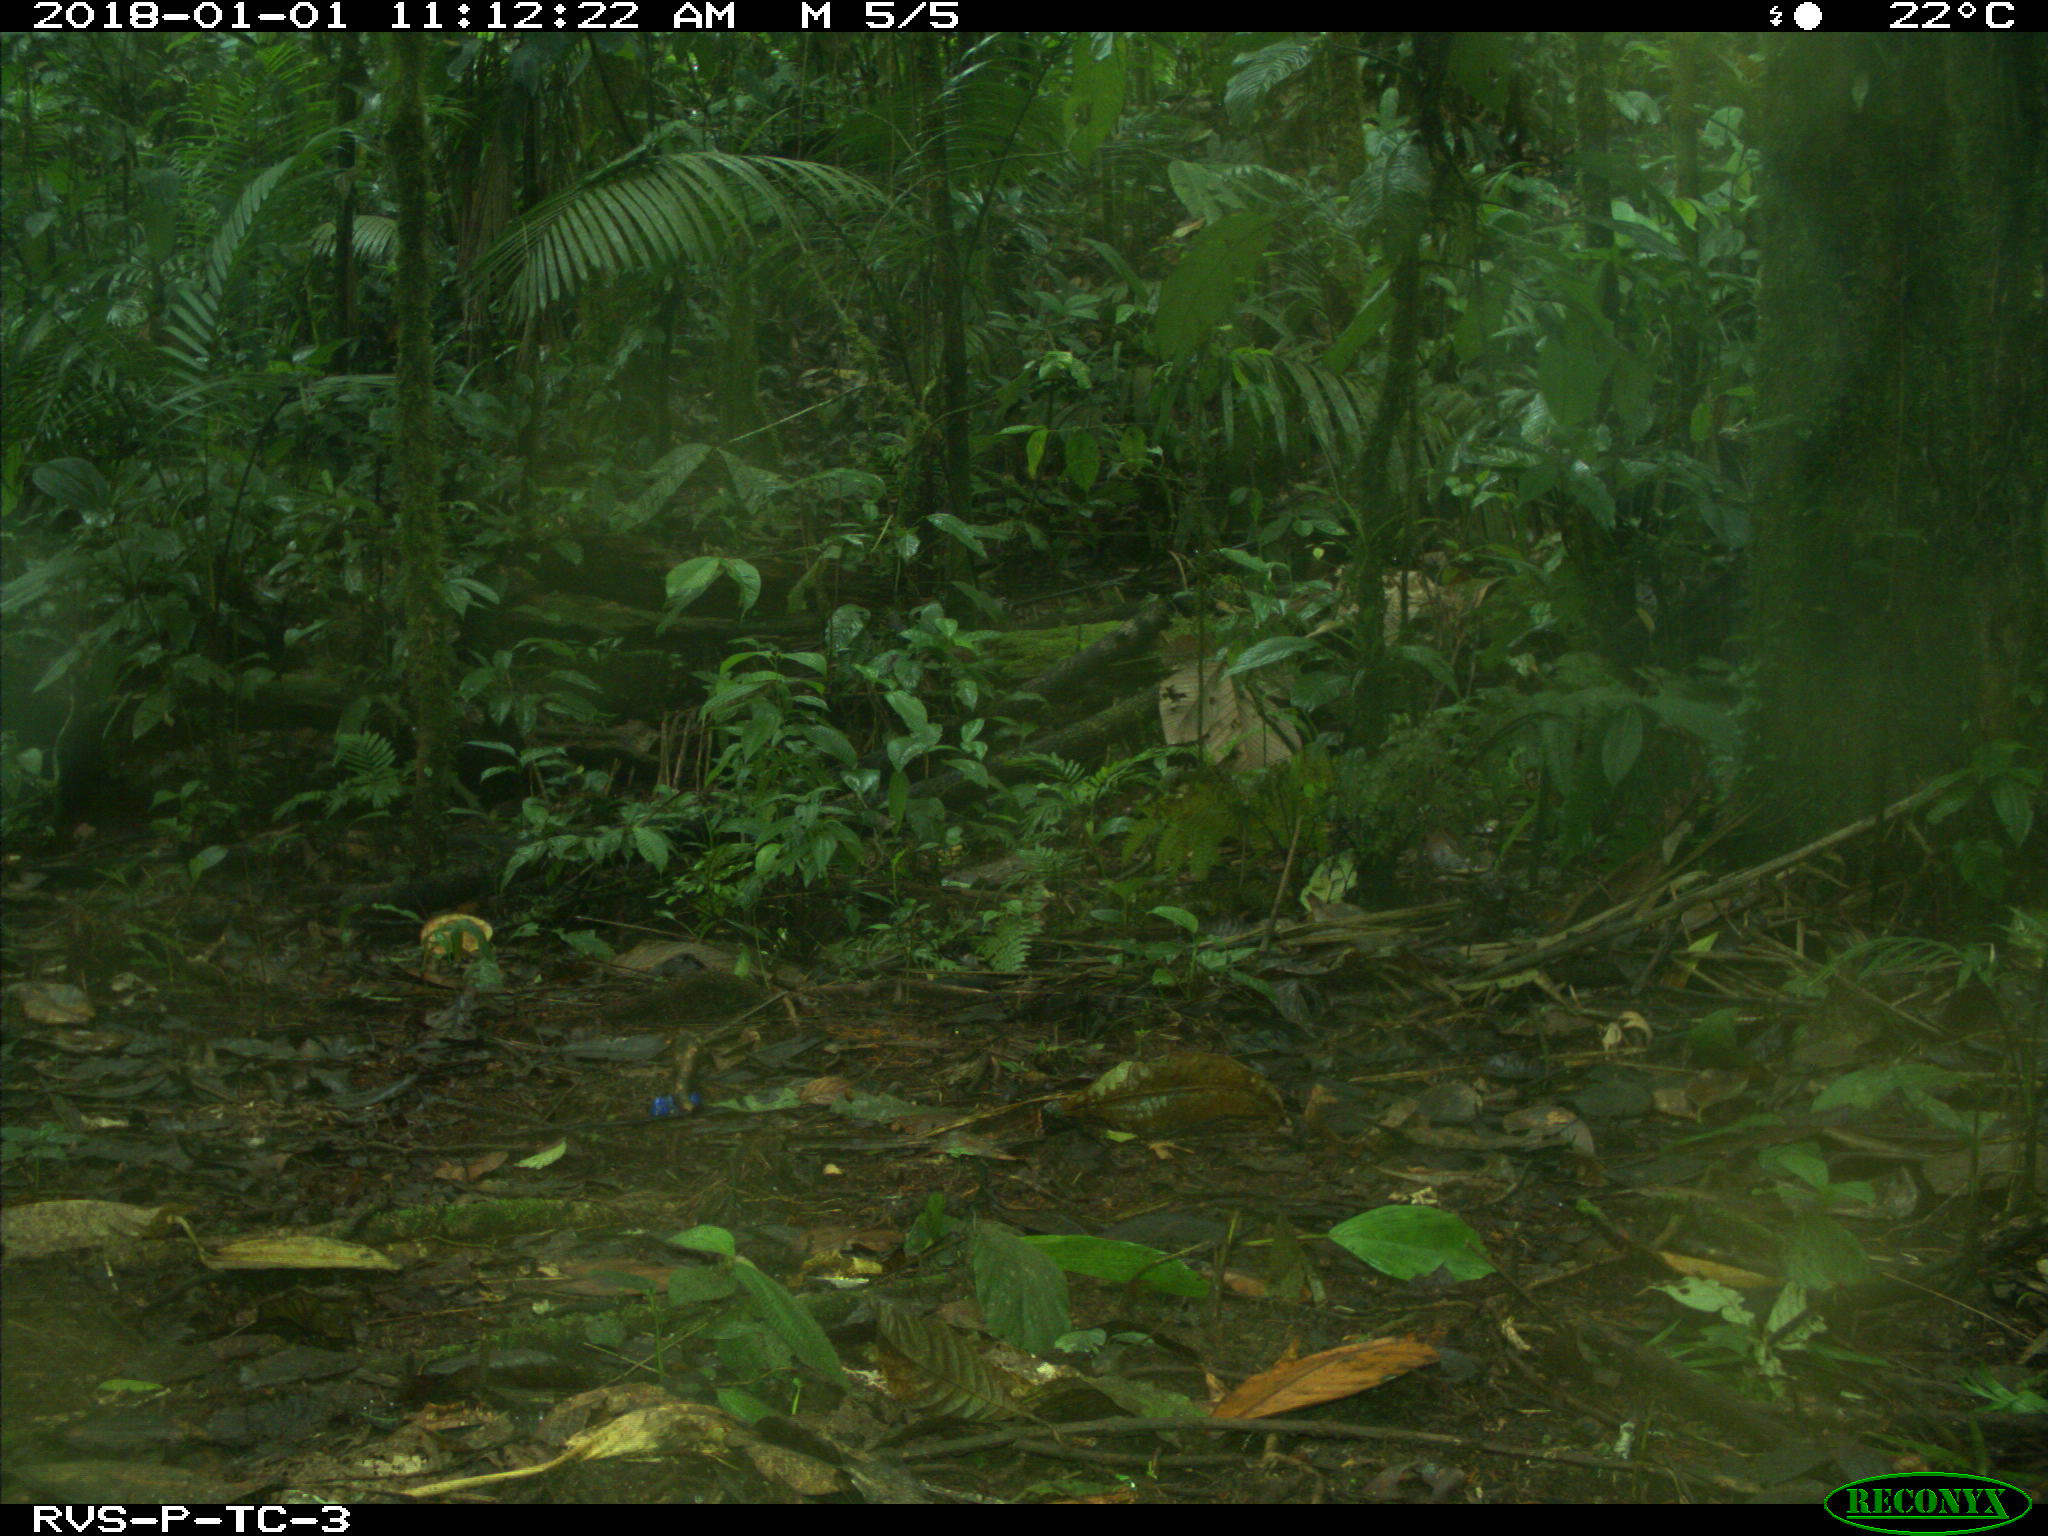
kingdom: Animalia
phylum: Chordata
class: Mammalia
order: Rodentia
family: Dasyproctidae
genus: Dasyprocta
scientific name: Dasyprocta punctata
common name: Central american agouti
